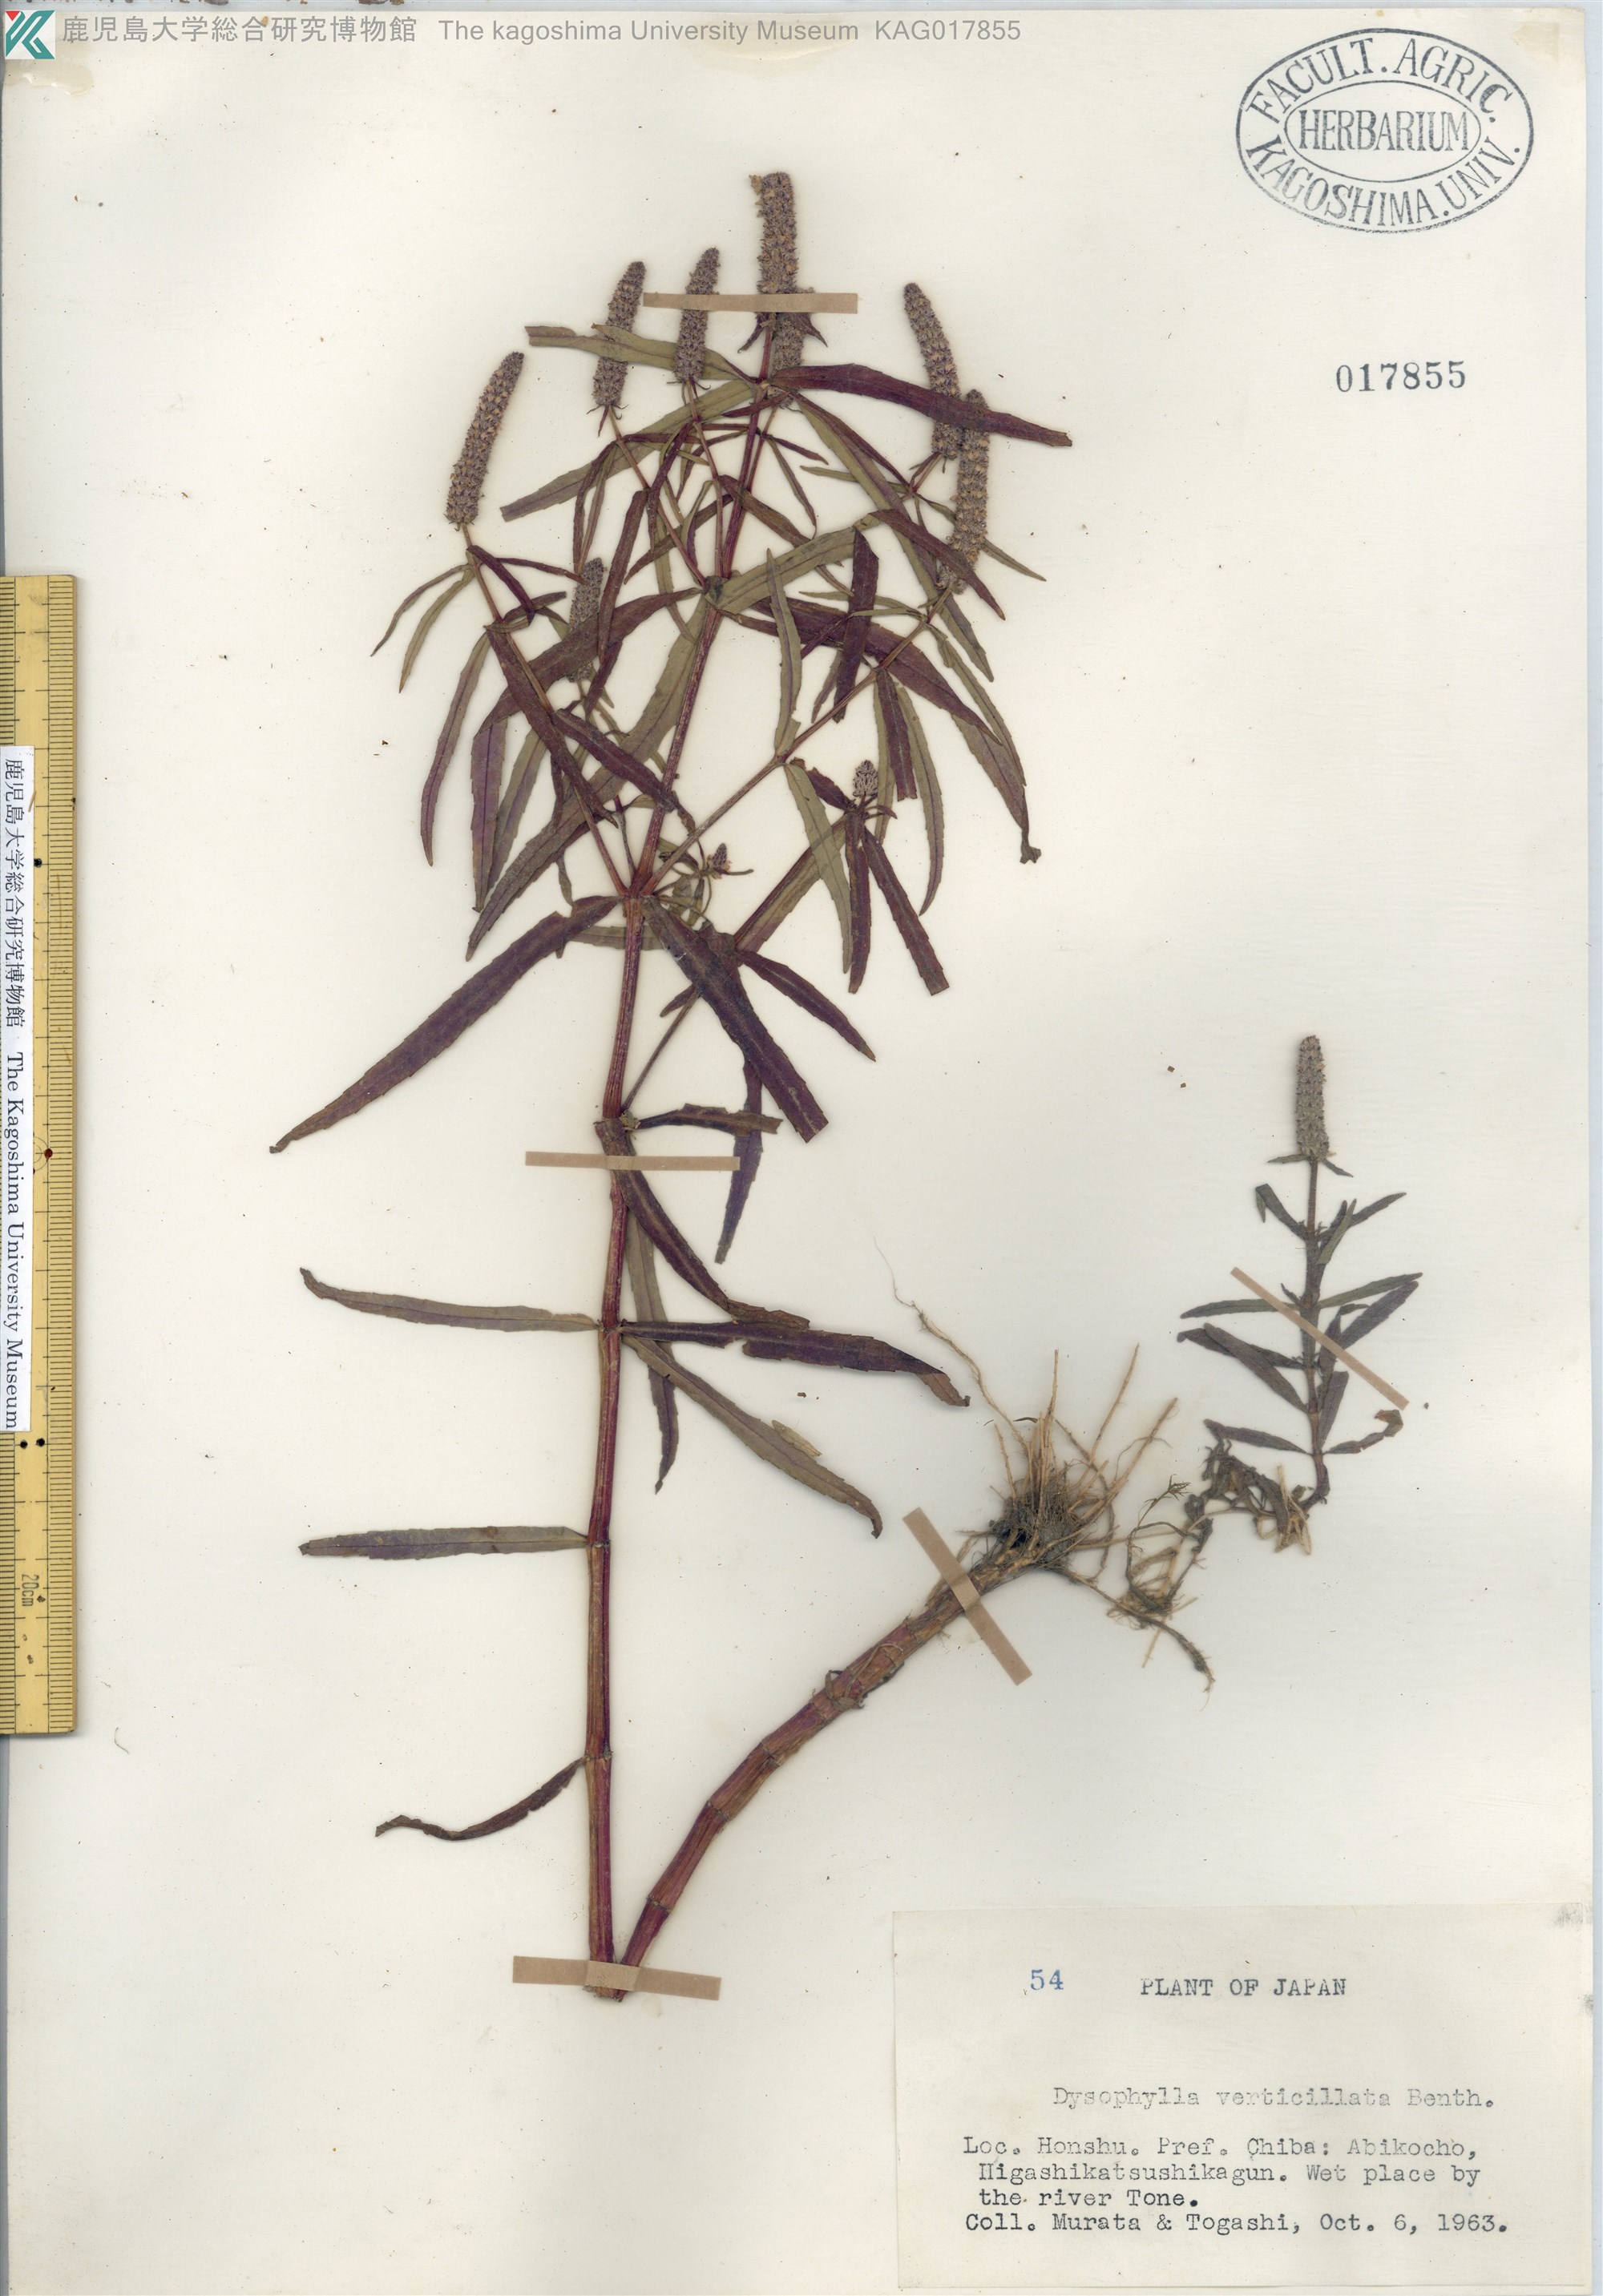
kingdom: Plantae
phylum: Tracheophyta
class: Magnoliopsida
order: Lamiales
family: Lamiaceae
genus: Pogostemon
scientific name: Pogostemon stellatus
